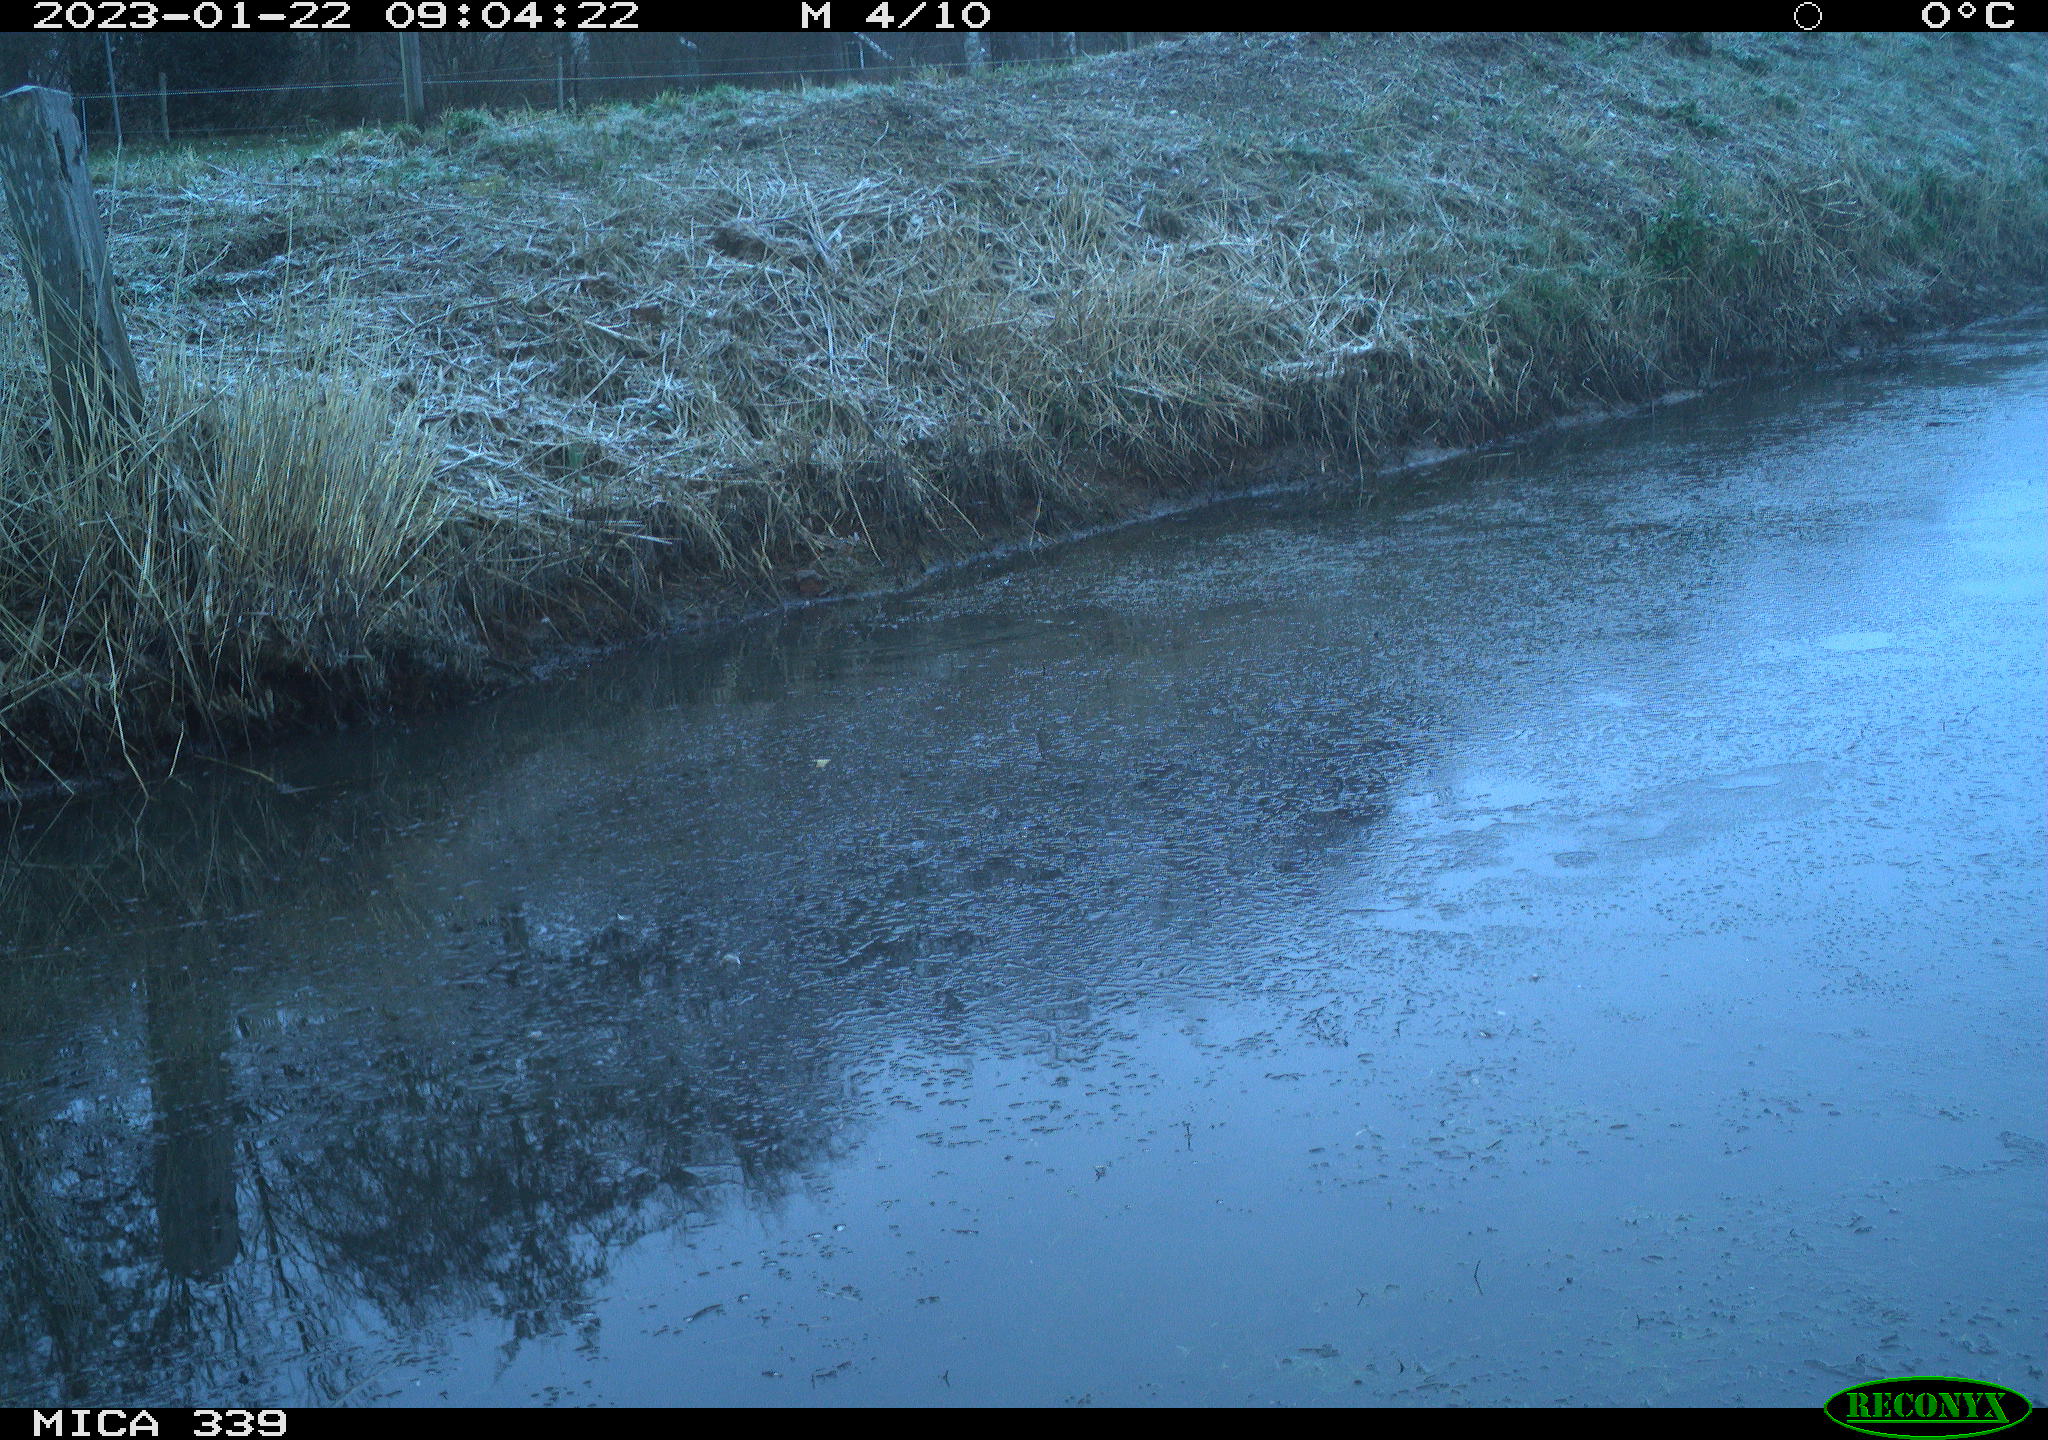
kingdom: Animalia
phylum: Chordata
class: Aves
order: Pelecaniformes
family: Ardeidae
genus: Ardea
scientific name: Ardea alba
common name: Great egret
